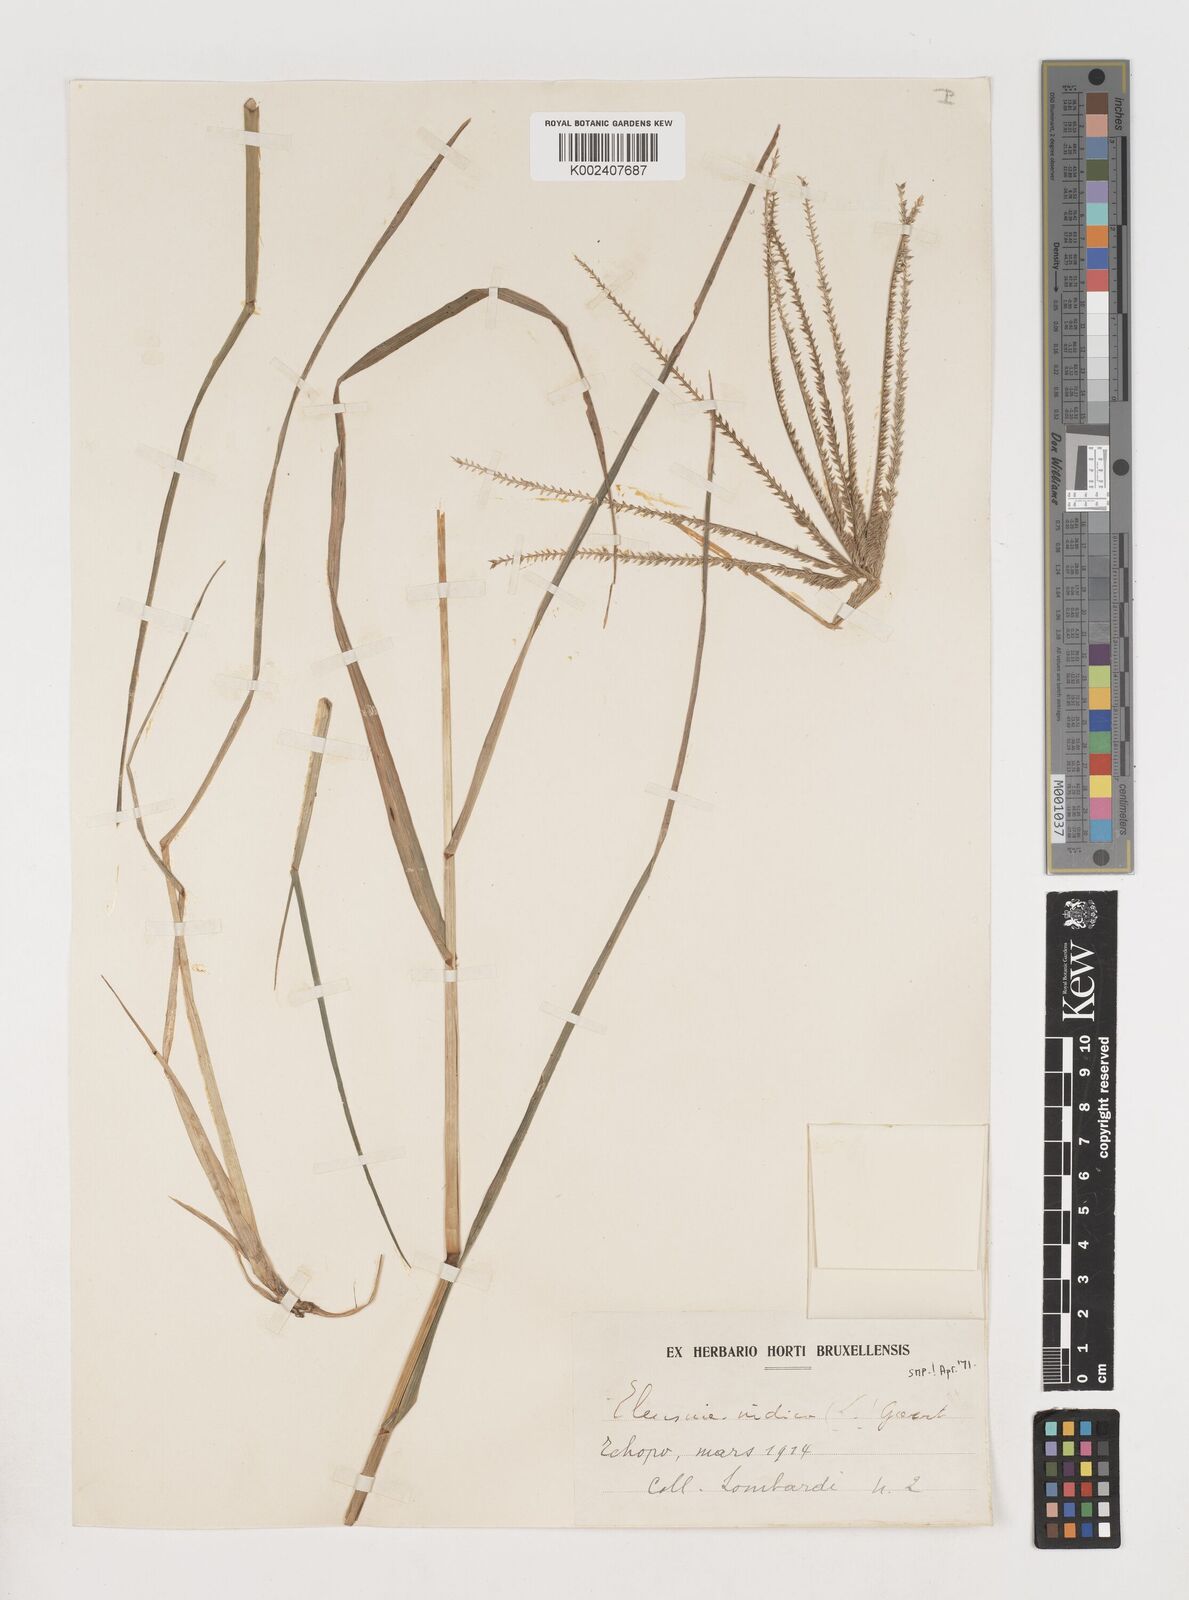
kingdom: Plantae
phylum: Tracheophyta
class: Liliopsida
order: Poales
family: Poaceae
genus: Eleusine
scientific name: Eleusine indica
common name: Yard-grass
